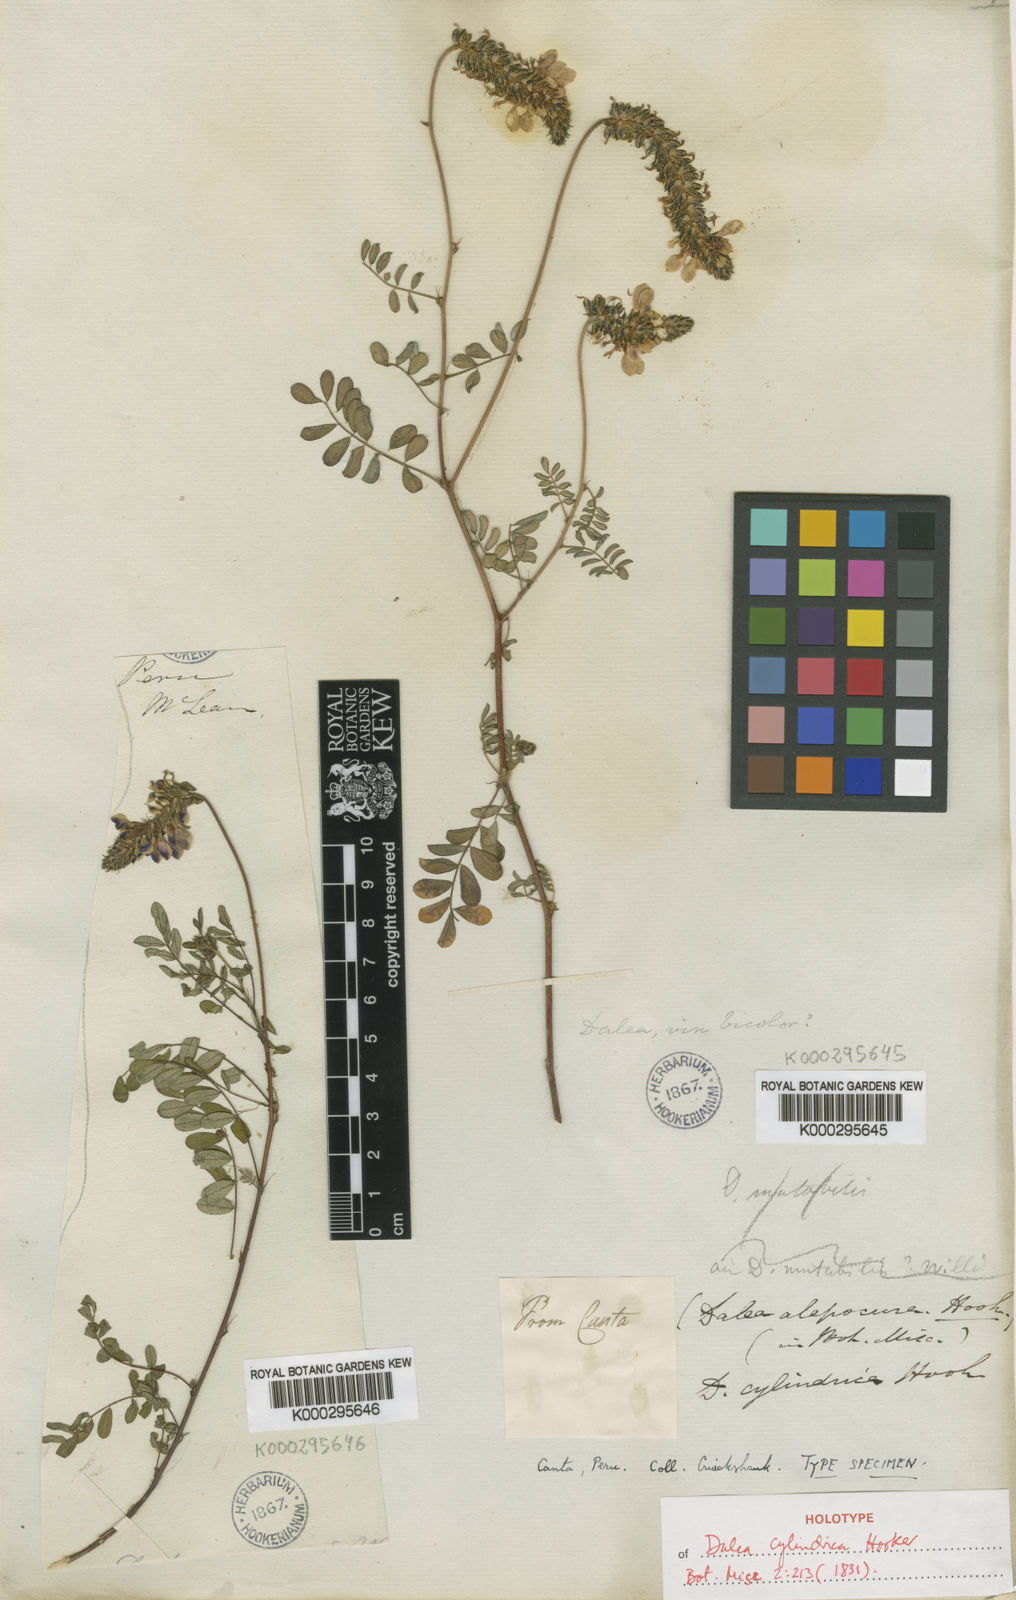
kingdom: Plantae
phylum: Tracheophyta
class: Magnoliopsida
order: Fabales
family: Fabaceae
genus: Dalea
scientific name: Dalea cylindrica
